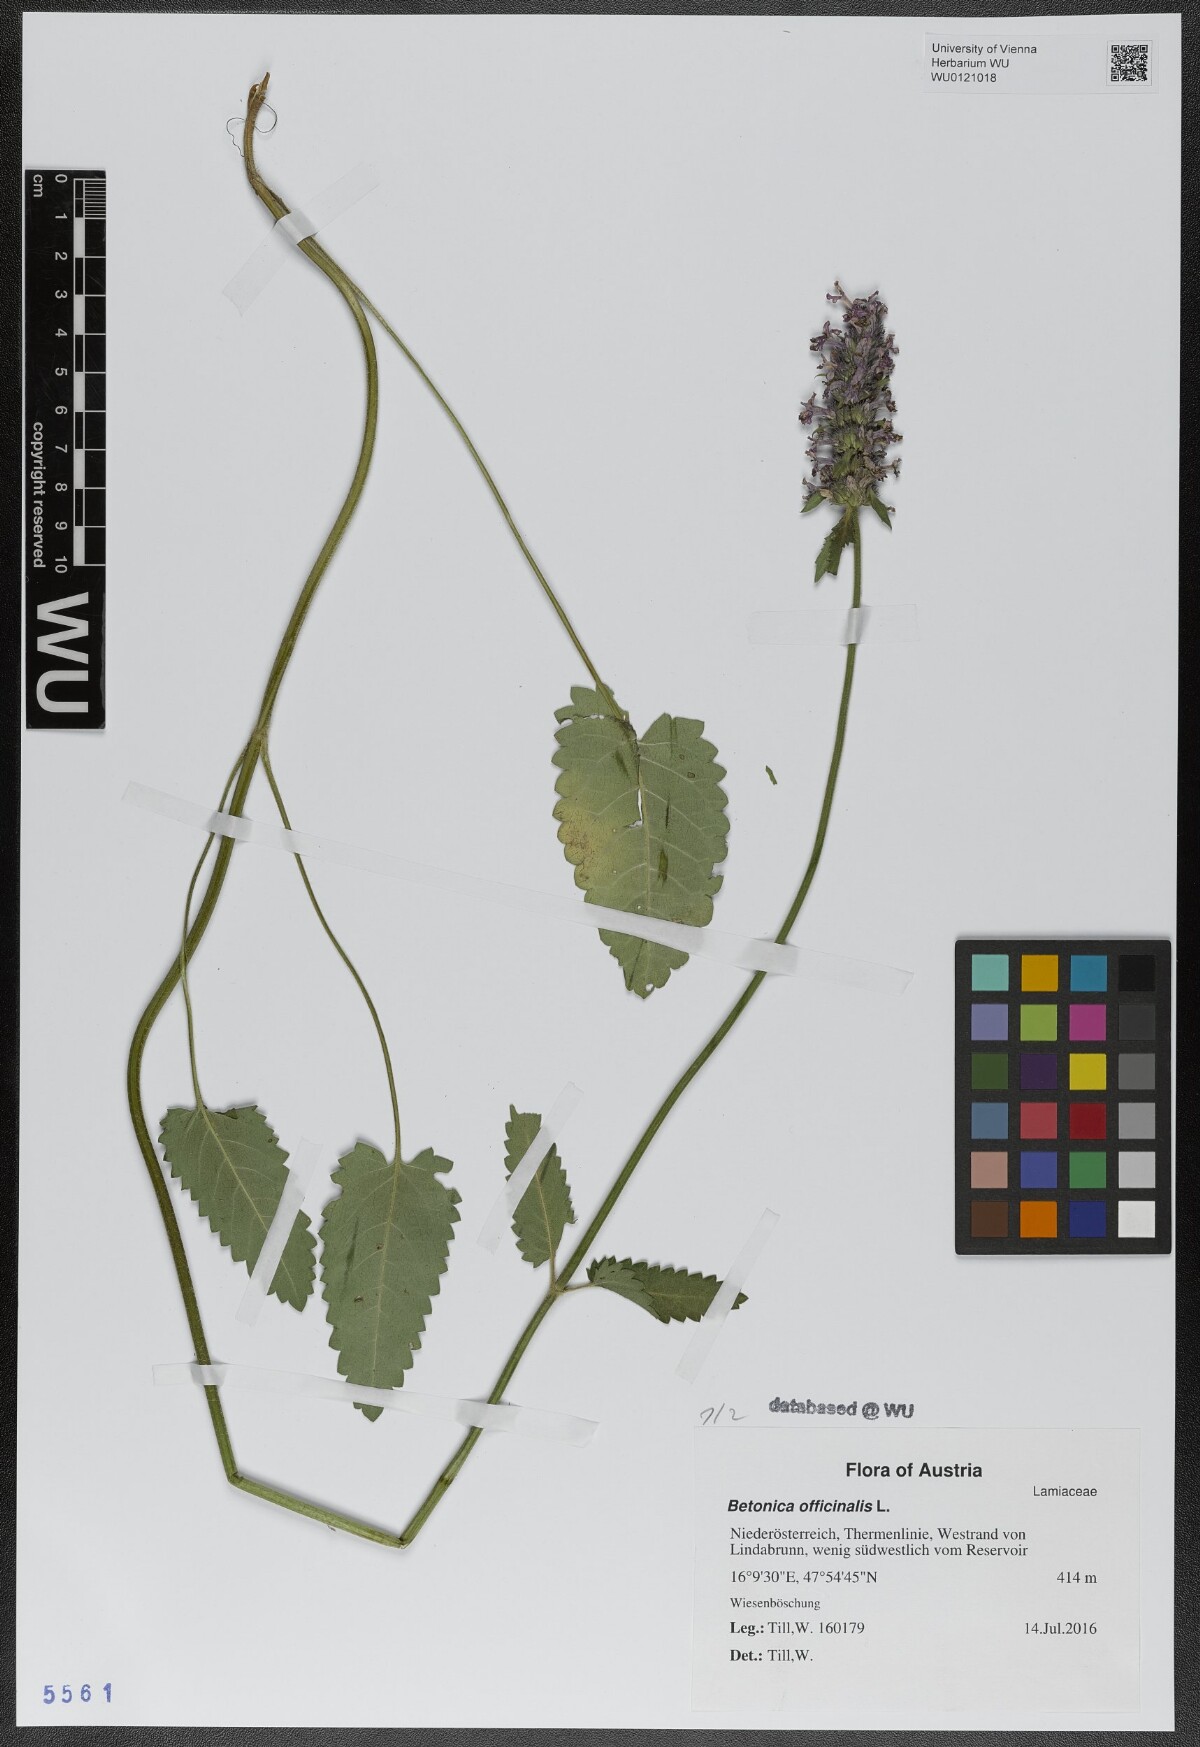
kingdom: Plantae
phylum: Tracheophyta
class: Magnoliopsida
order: Lamiales
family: Lamiaceae
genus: Betonica
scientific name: Betonica officinalis
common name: Bishop's-wort
